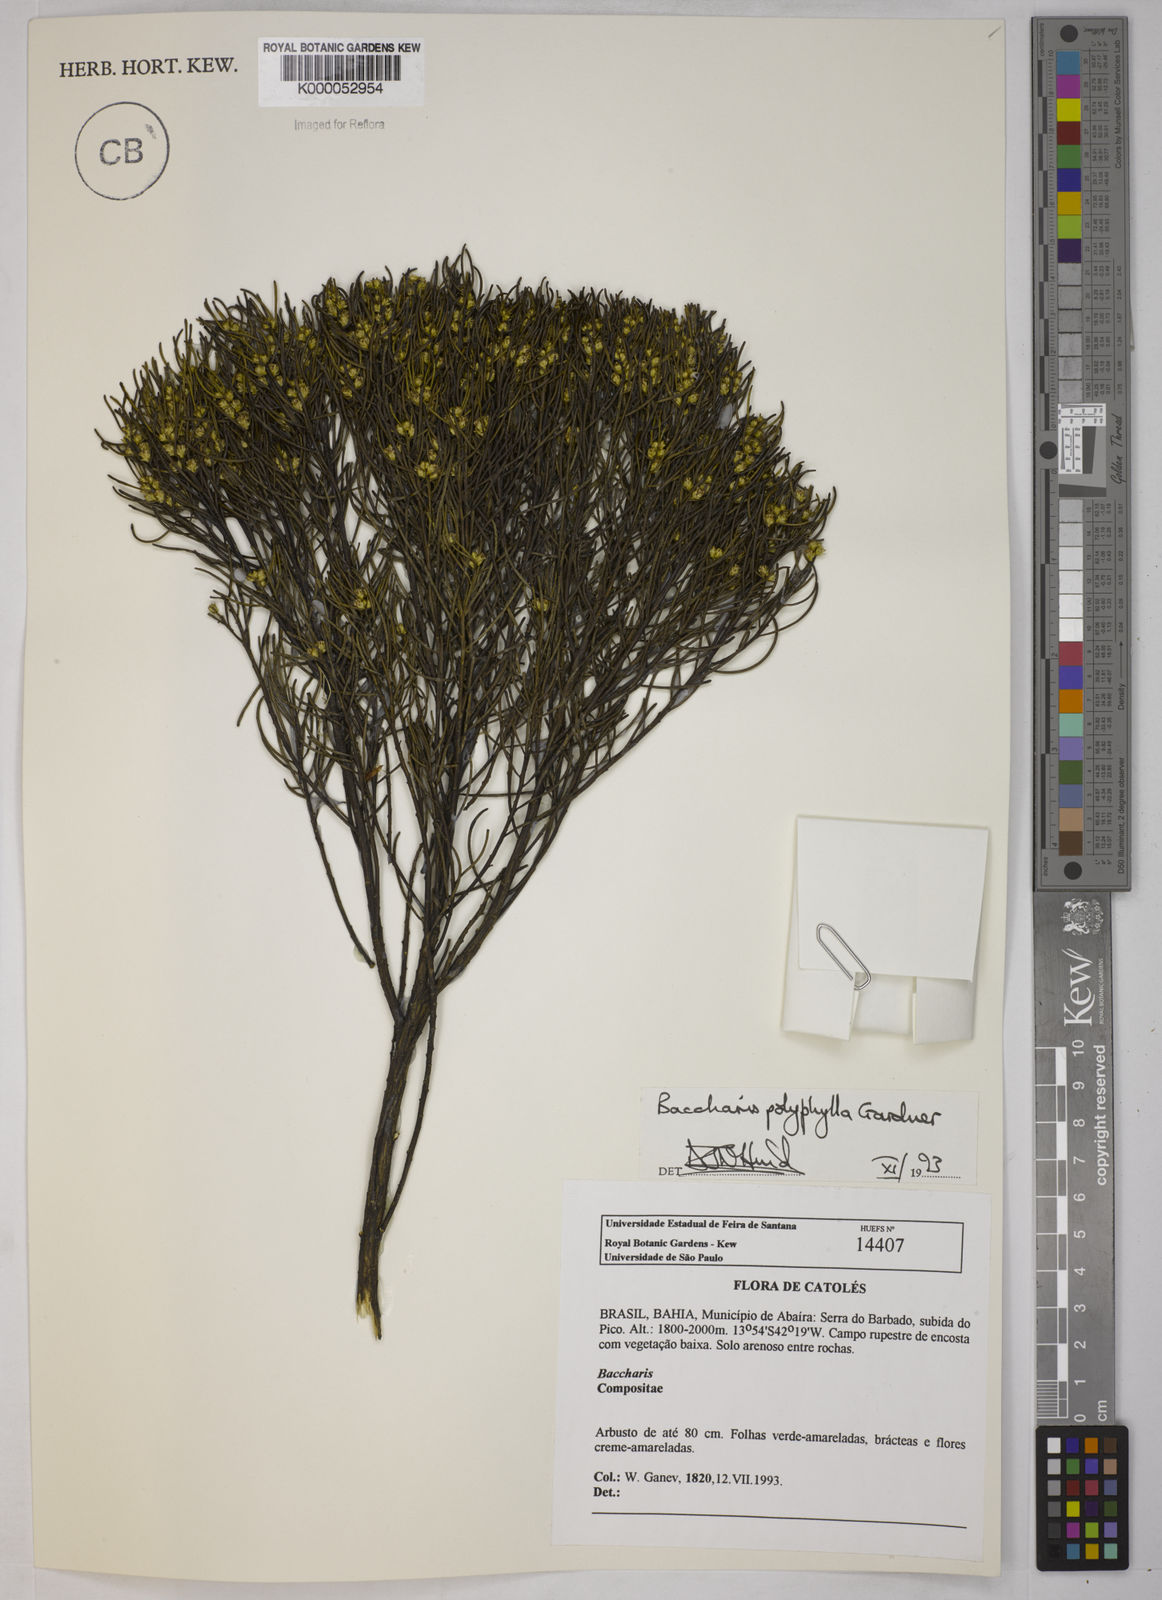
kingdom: Plantae
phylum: Tracheophyta
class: Magnoliopsida
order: Asterales
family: Asteraceae
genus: Baccharis
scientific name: Baccharis polyphylla
